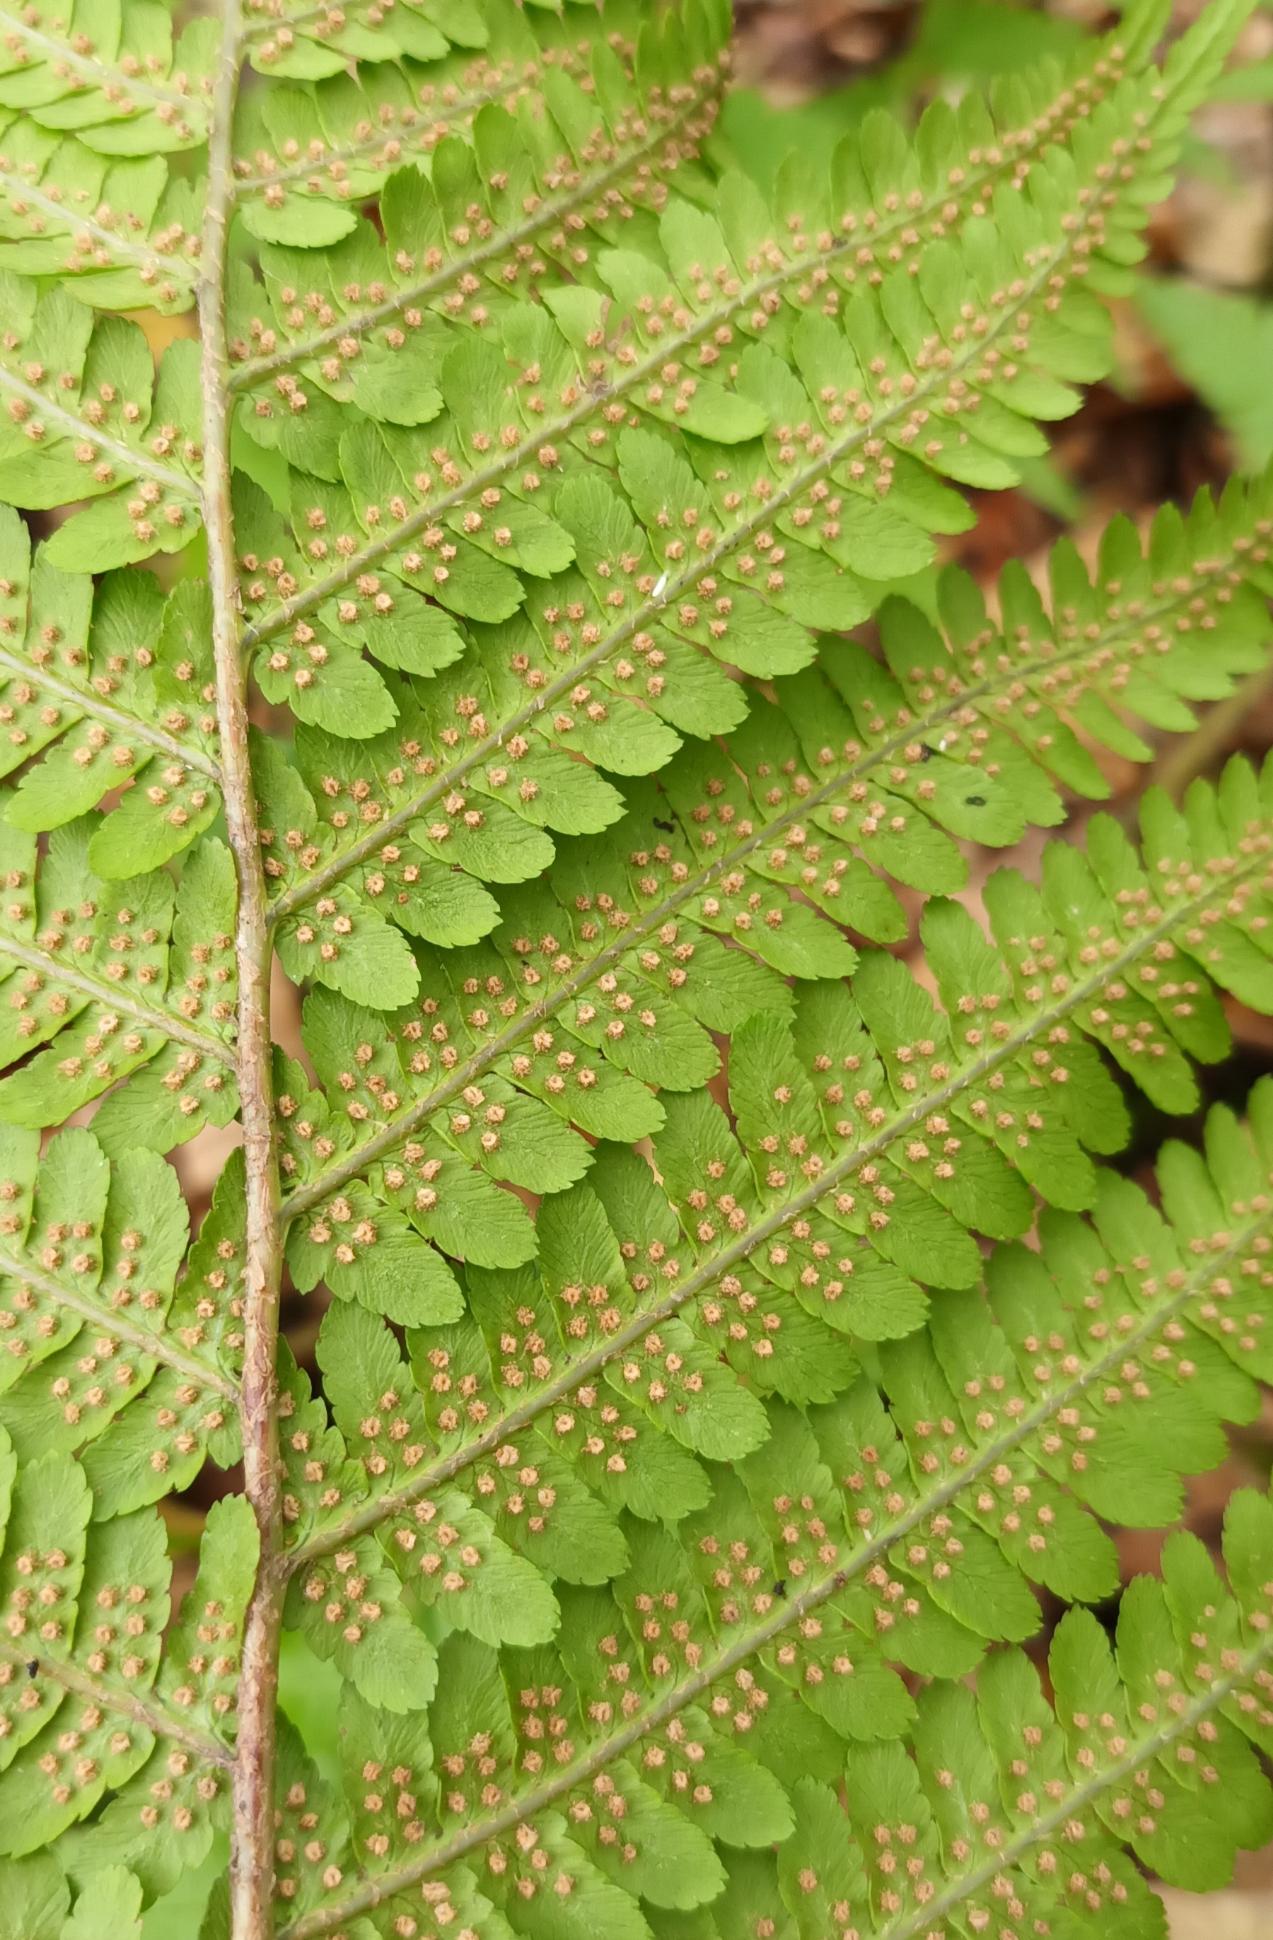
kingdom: Plantae
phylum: Tracheophyta
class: Polypodiopsida
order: Polypodiales
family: Dryopteridaceae
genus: Dryopteris
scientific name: Dryopteris filix-mas
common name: Almindelig mangeløv
